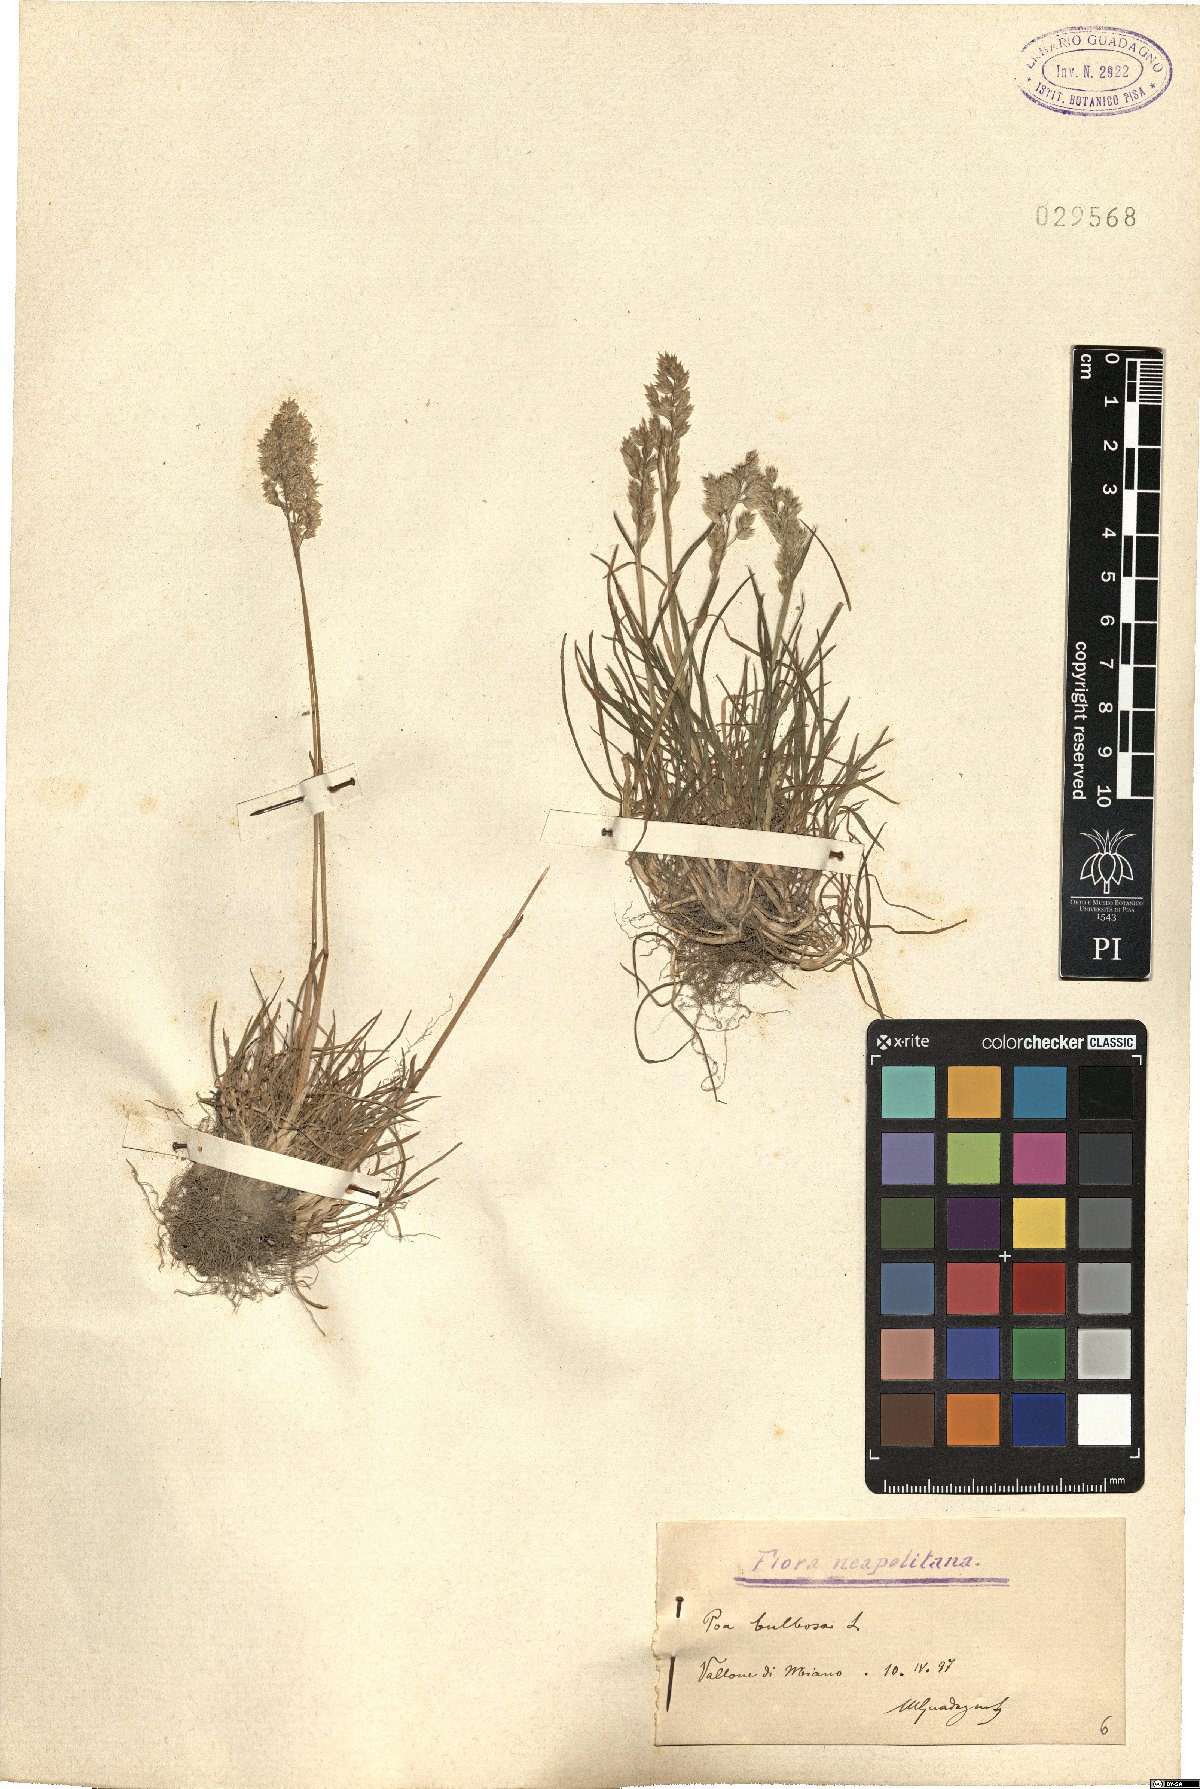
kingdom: Plantae
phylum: Tracheophyta
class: Liliopsida
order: Poales
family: Poaceae
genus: Poa
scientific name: Poa bulbosa
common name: Bulbous bluegrass
